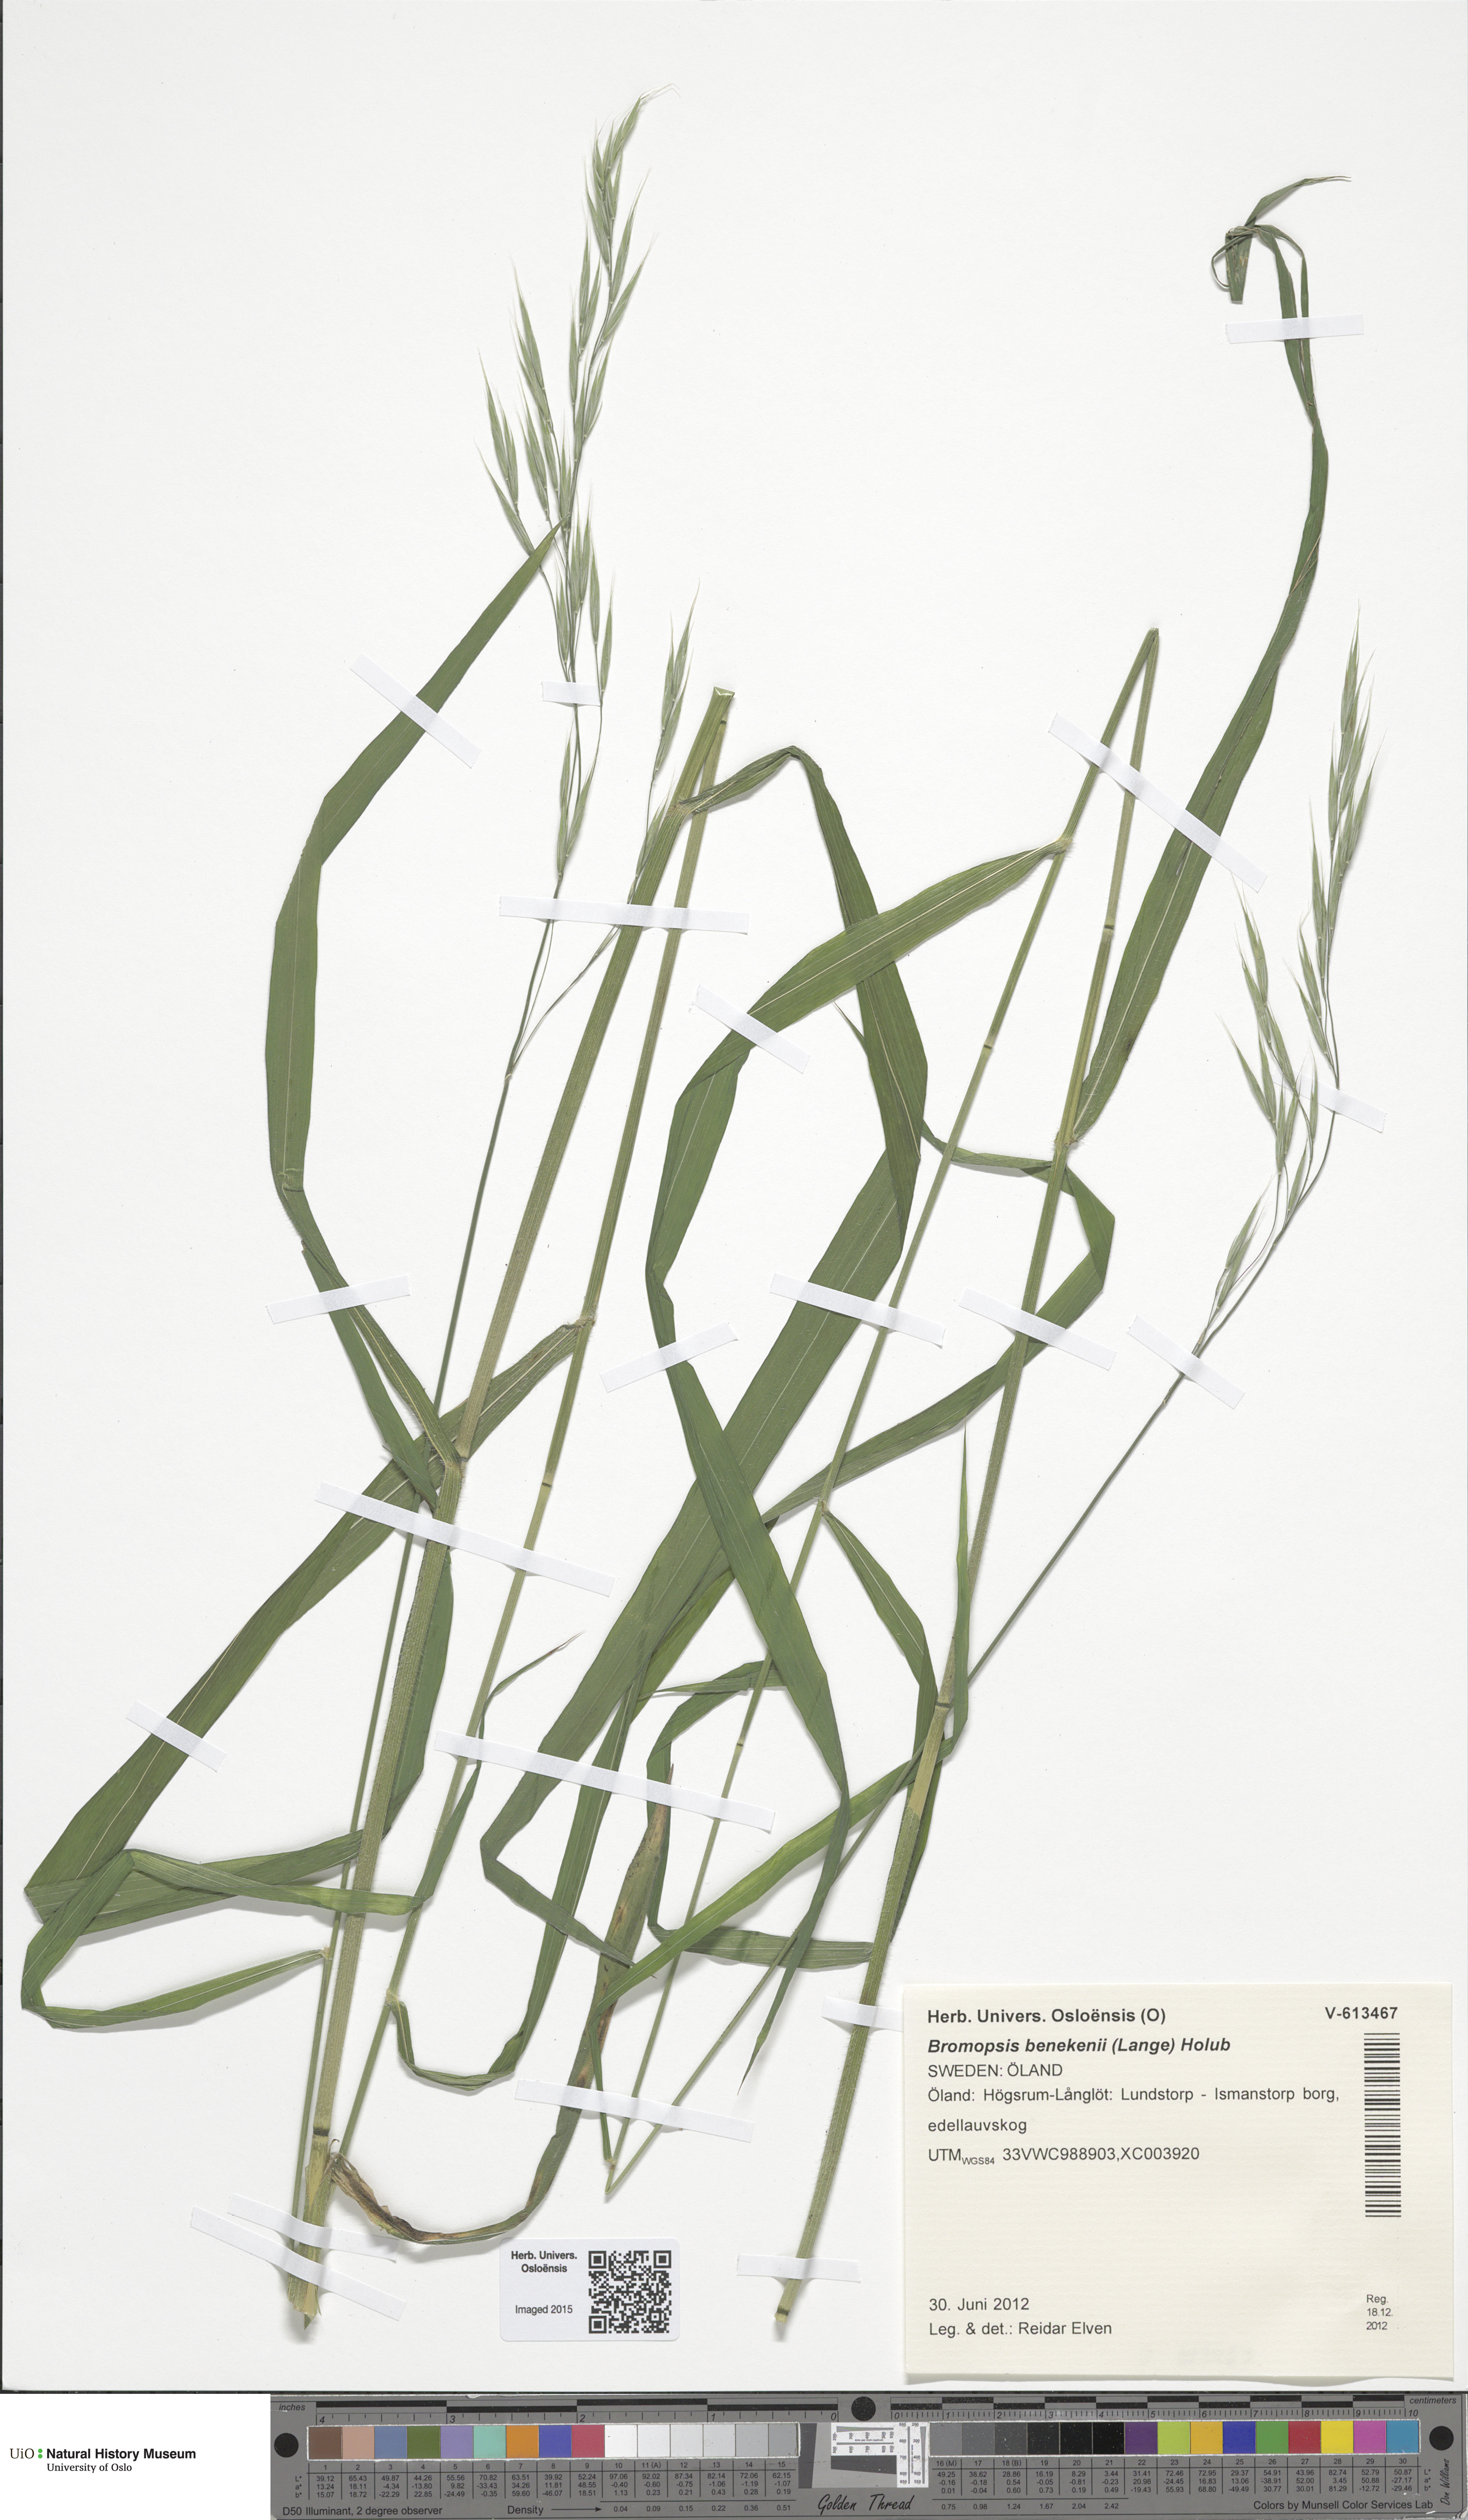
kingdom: Plantae
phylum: Tracheophyta
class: Liliopsida
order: Poales
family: Poaceae
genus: Bromus
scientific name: Bromus benekenii
